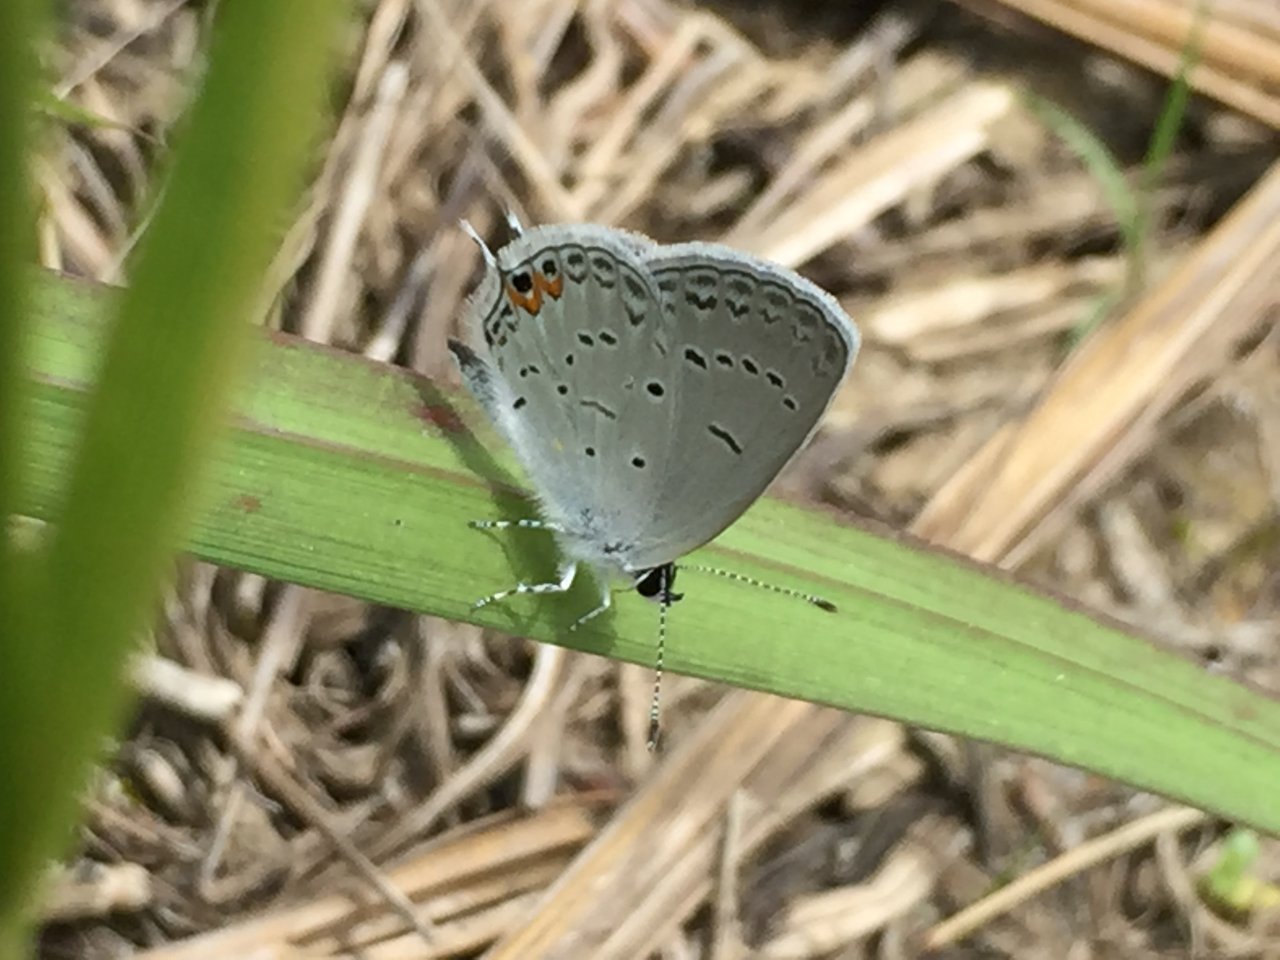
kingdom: Animalia
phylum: Arthropoda
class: Insecta
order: Lepidoptera
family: Lycaenidae
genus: Elkalyce
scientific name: Elkalyce comyntas
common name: Eastern Tailed-Blue
